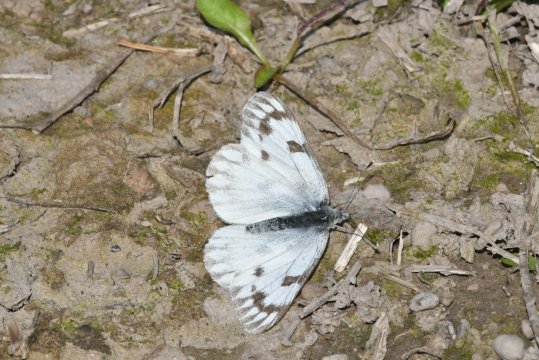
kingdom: Animalia
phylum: Arthropoda
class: Insecta
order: Lepidoptera
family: Pieridae
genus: Pontia
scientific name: Pontia occidentalis
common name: Western White
